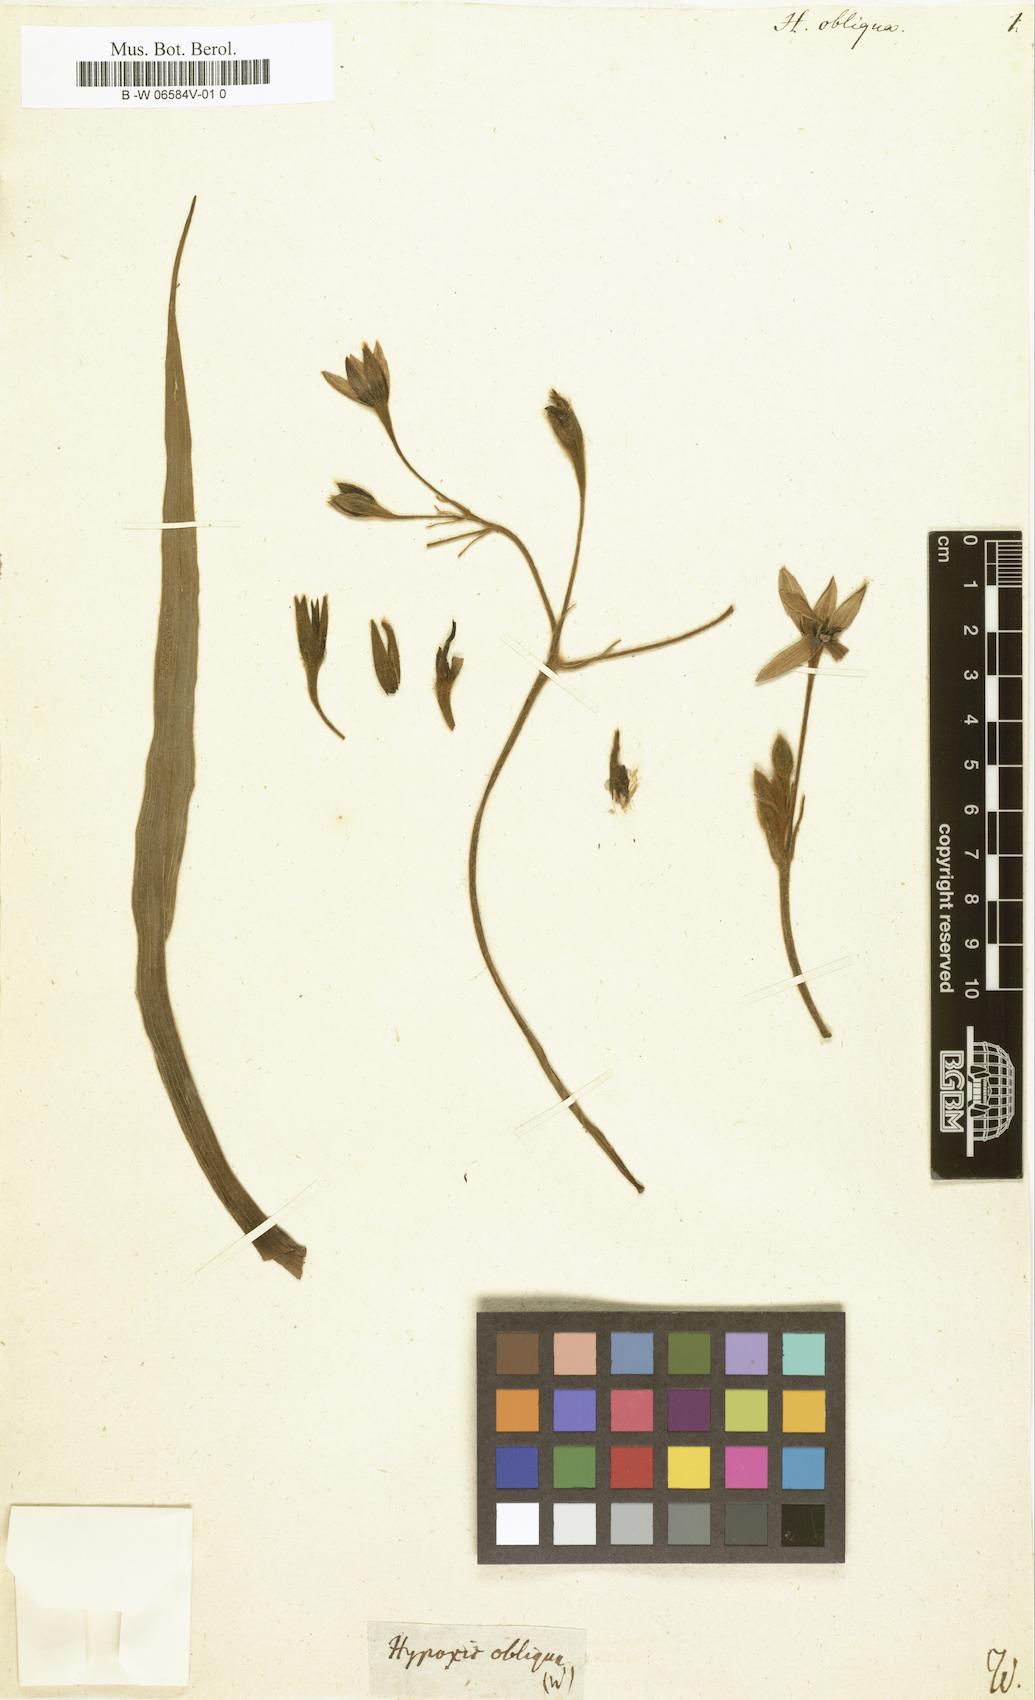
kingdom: Plantae
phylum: Tracheophyta
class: Liliopsida
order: Asparagales
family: Hypoxidaceae
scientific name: Hypoxidaceae
